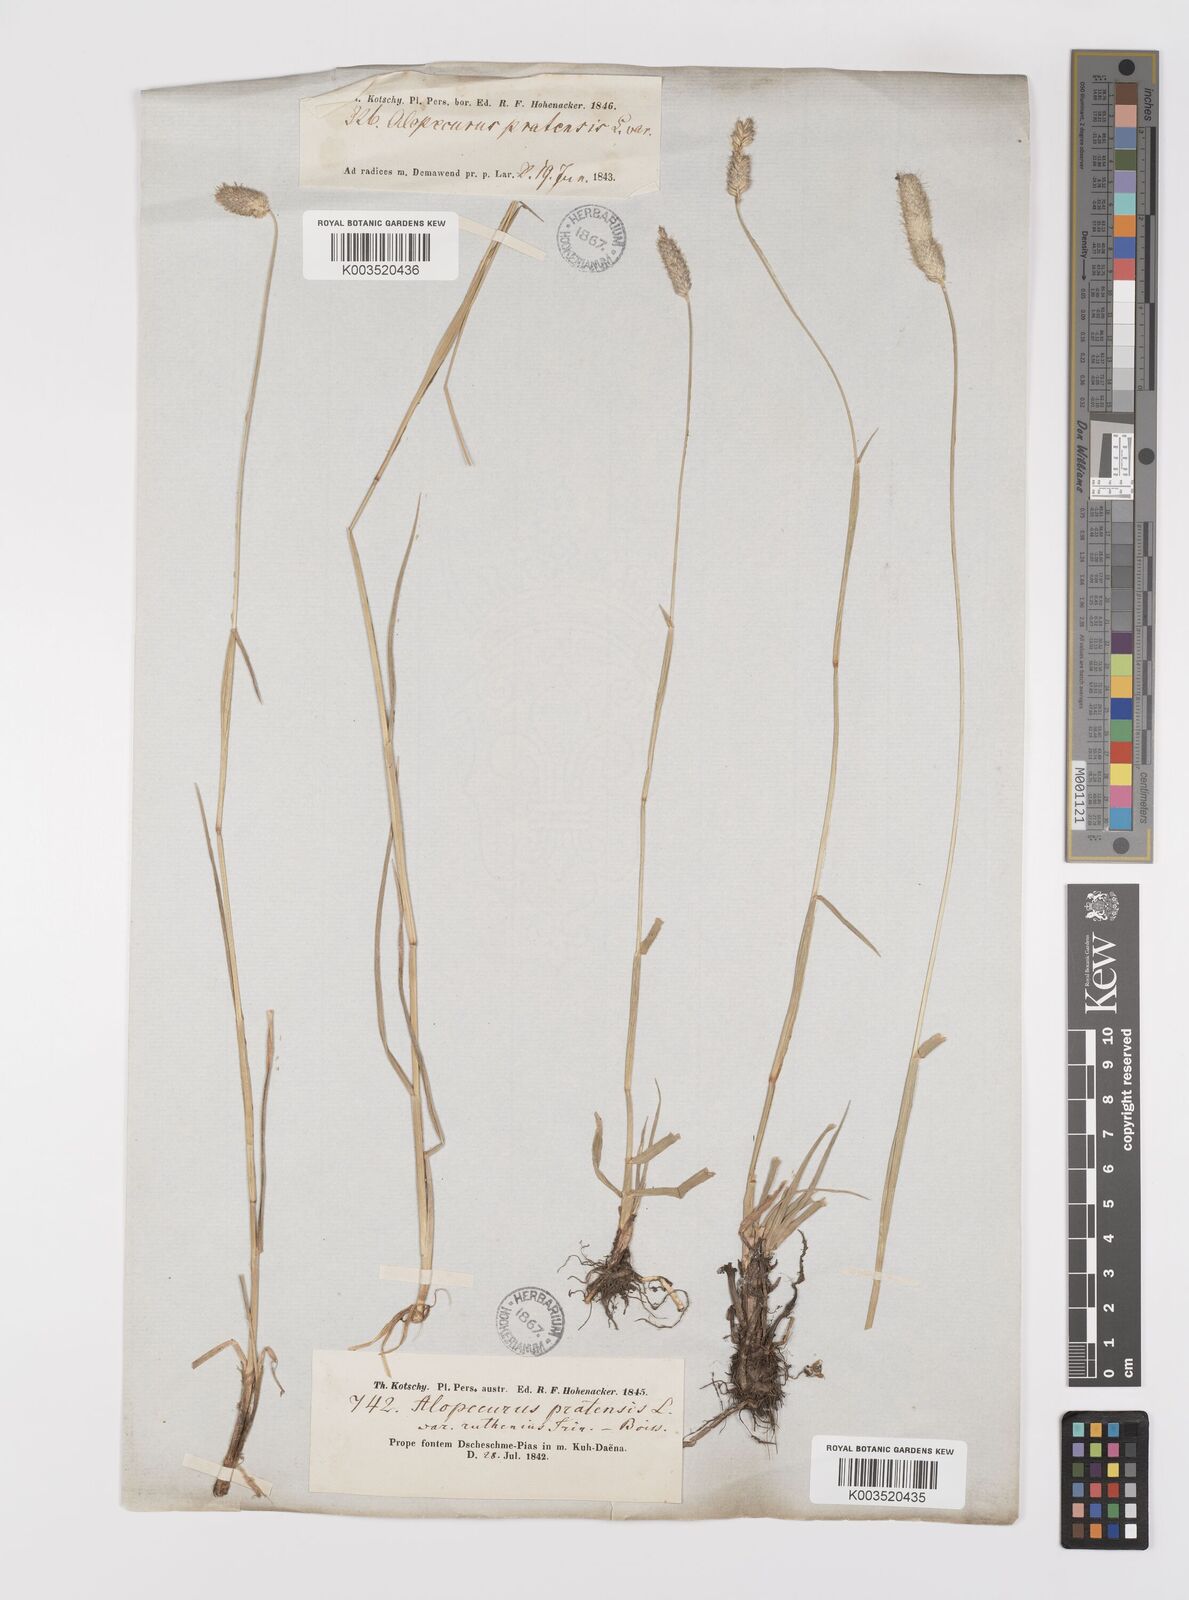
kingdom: Plantae
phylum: Tracheophyta
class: Liliopsida
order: Poales
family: Poaceae
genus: Alopecurus
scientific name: Alopecurus arundinaceus
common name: Creeping meadow foxtail
